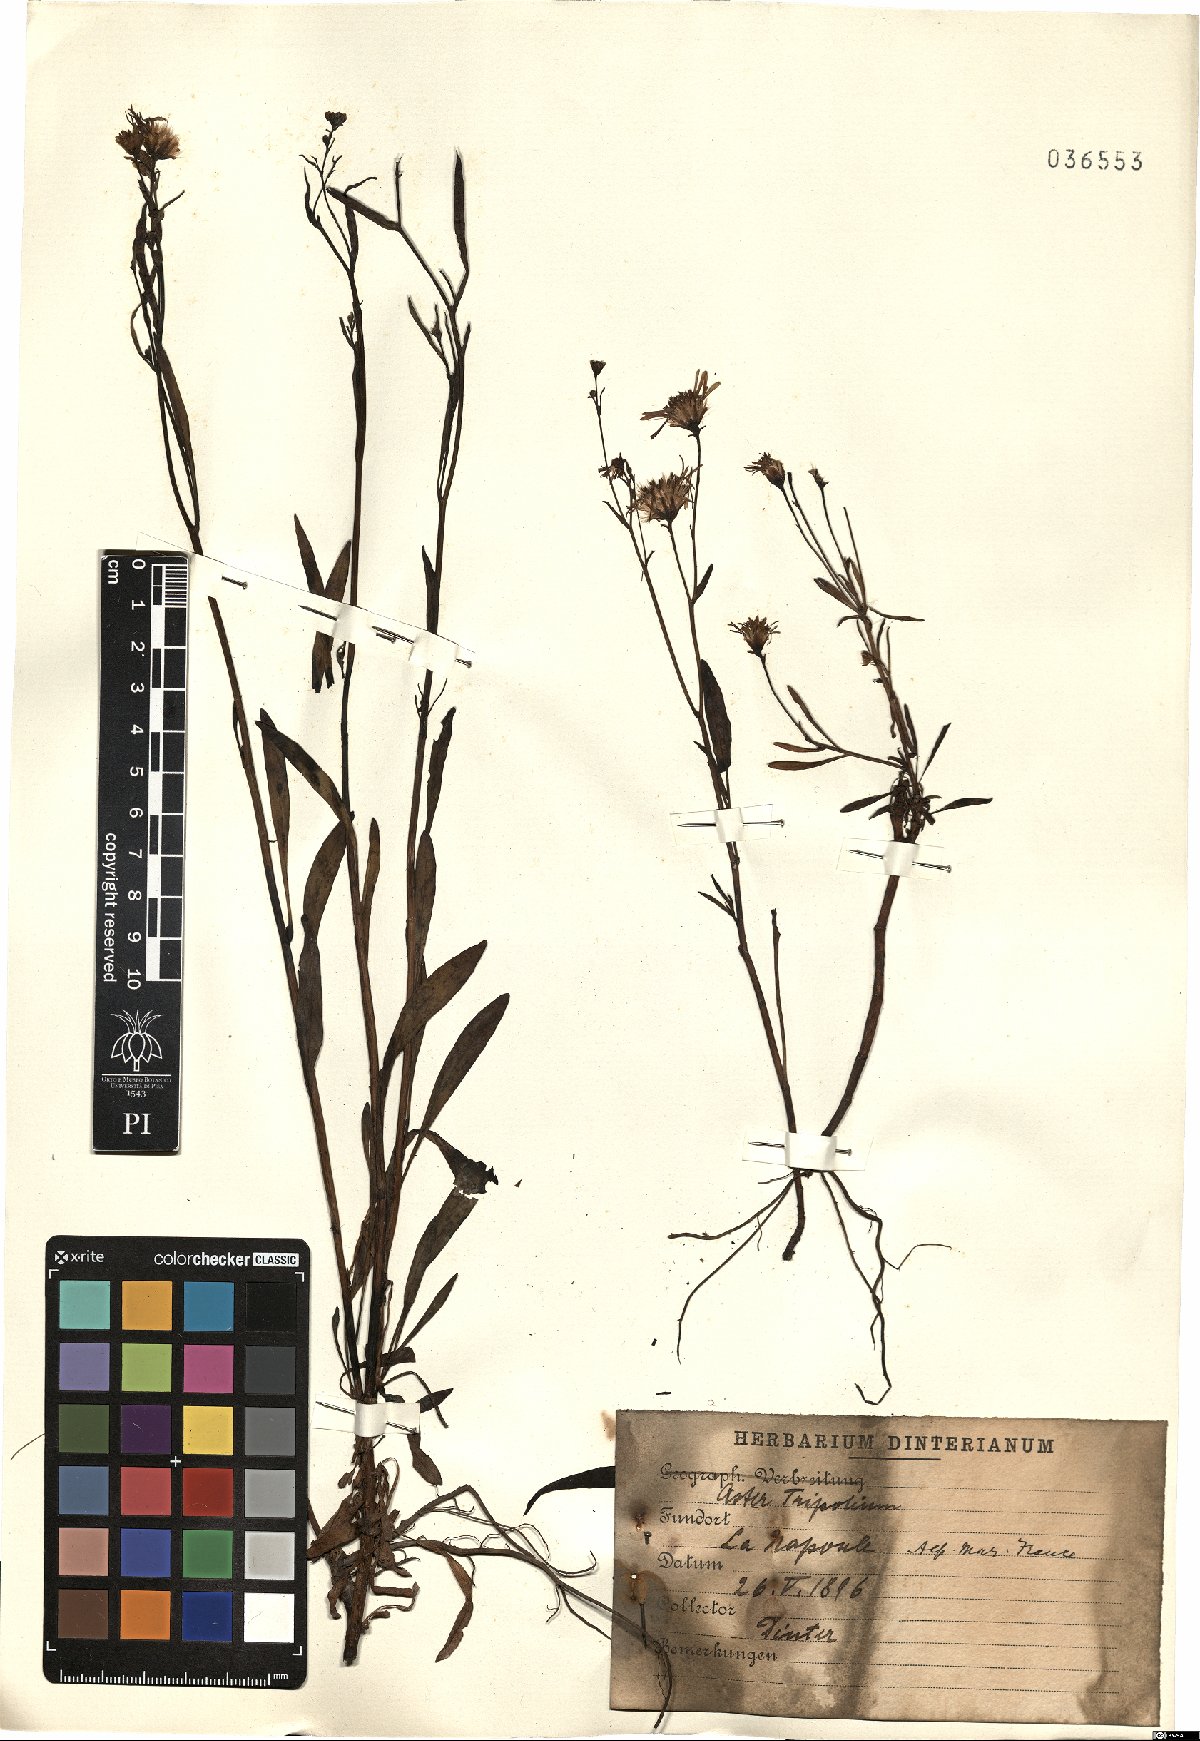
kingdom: Plantae
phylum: Tracheophyta
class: Magnoliopsida
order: Asterales
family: Asteraceae
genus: Tripolium
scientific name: Tripolium pannonicum
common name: Sea aster
